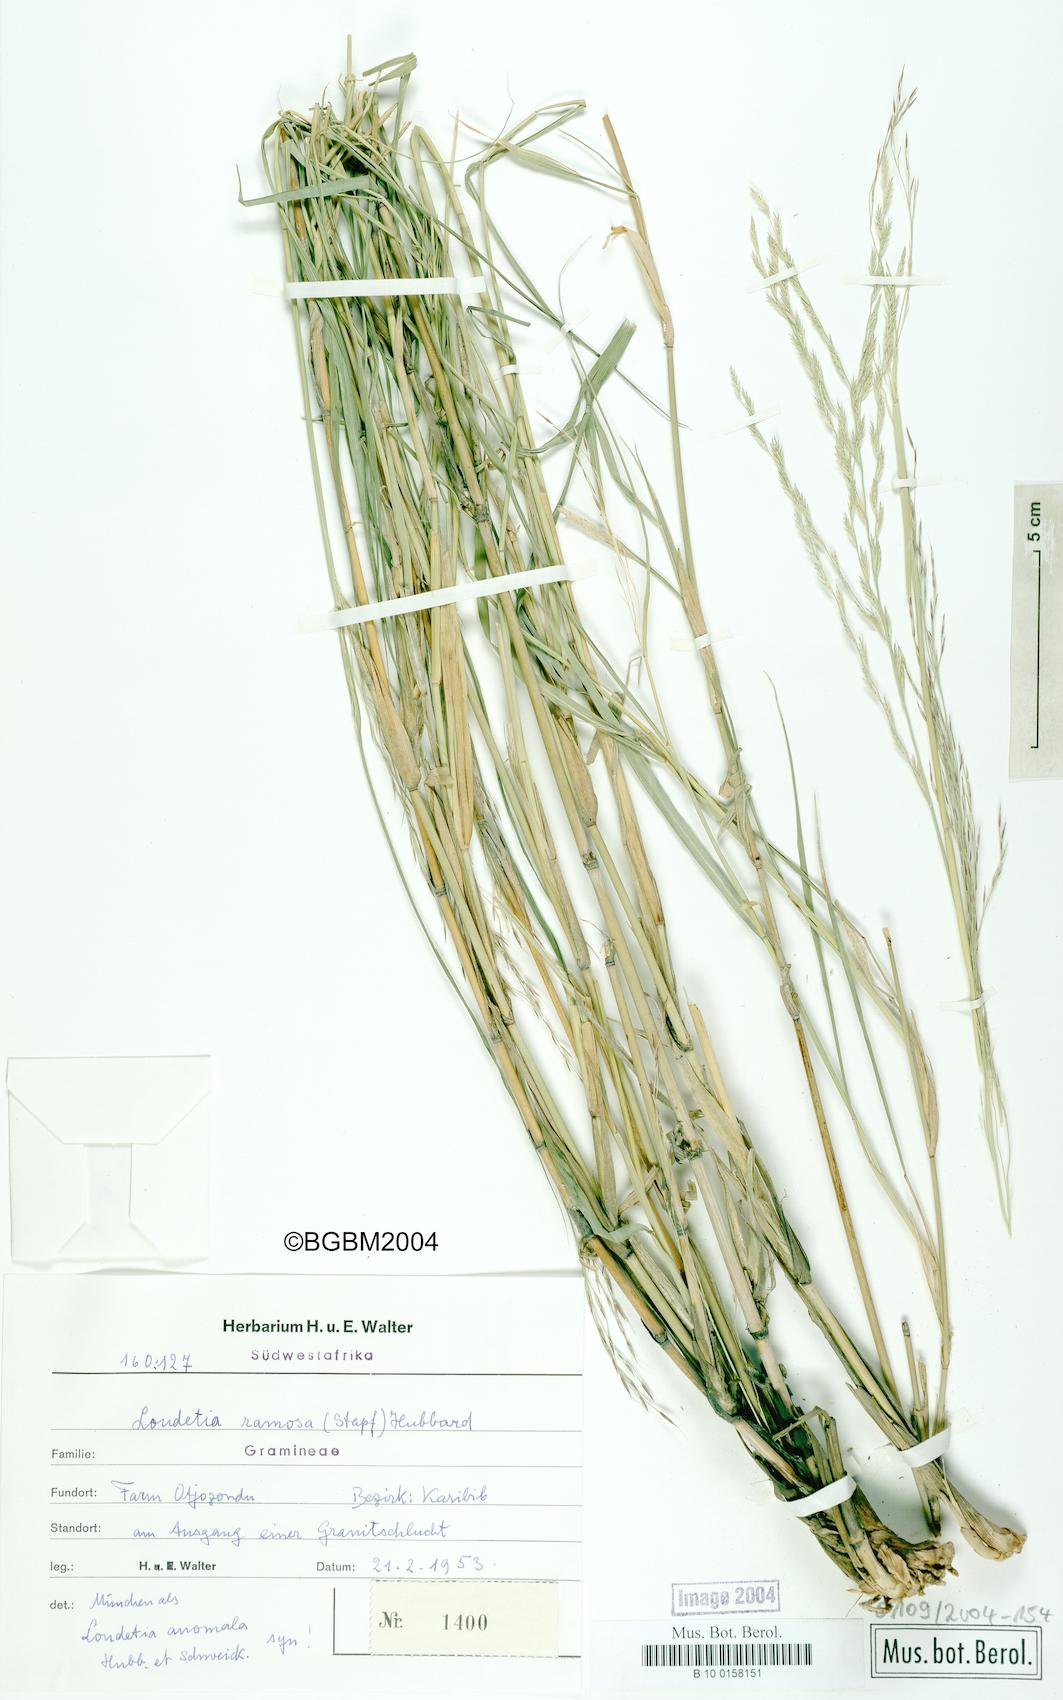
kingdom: Plantae
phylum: Tracheophyta
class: Liliopsida
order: Poales
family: Poaceae
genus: Danthoniopsis
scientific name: Danthoniopsis ramosa
